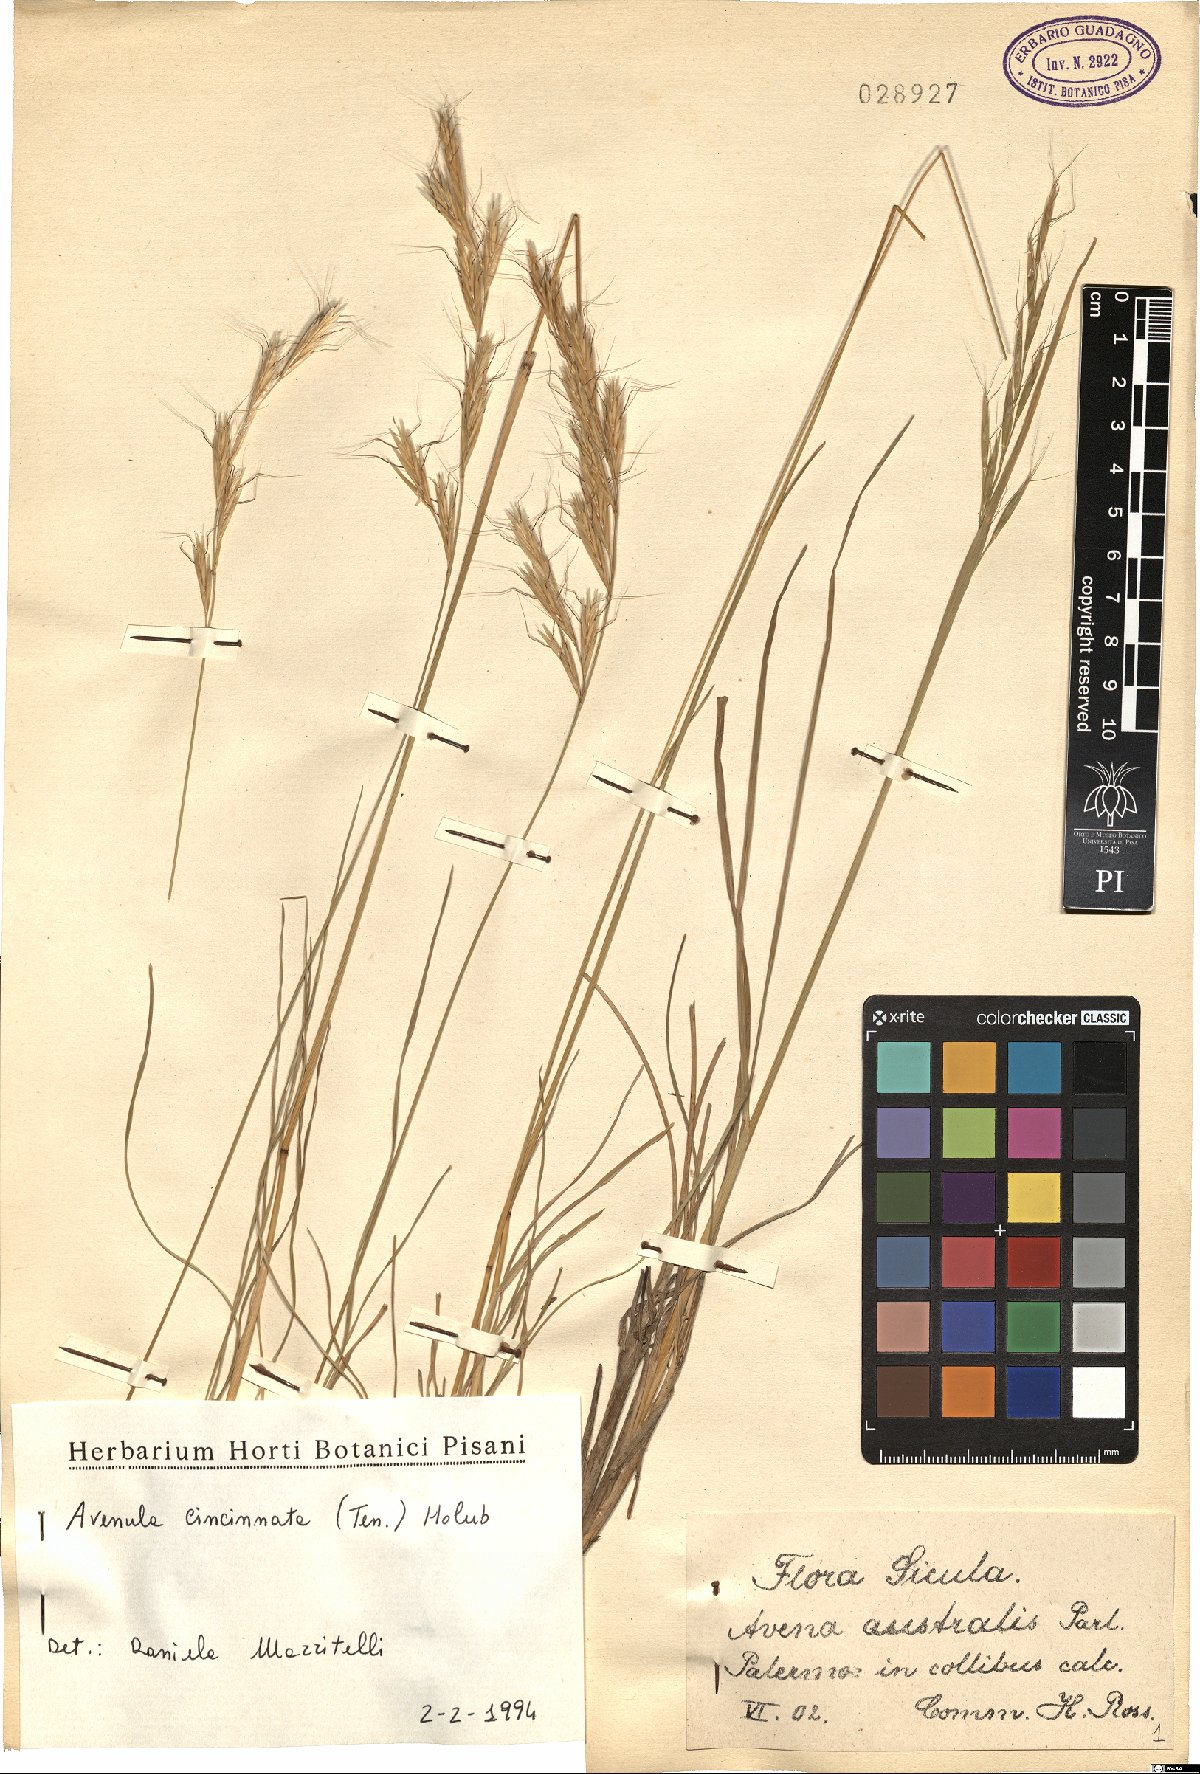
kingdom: Plantae
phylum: Tracheophyta
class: Liliopsida
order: Poales
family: Poaceae
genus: Helictochloa
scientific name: Helictochloa cincinnata
